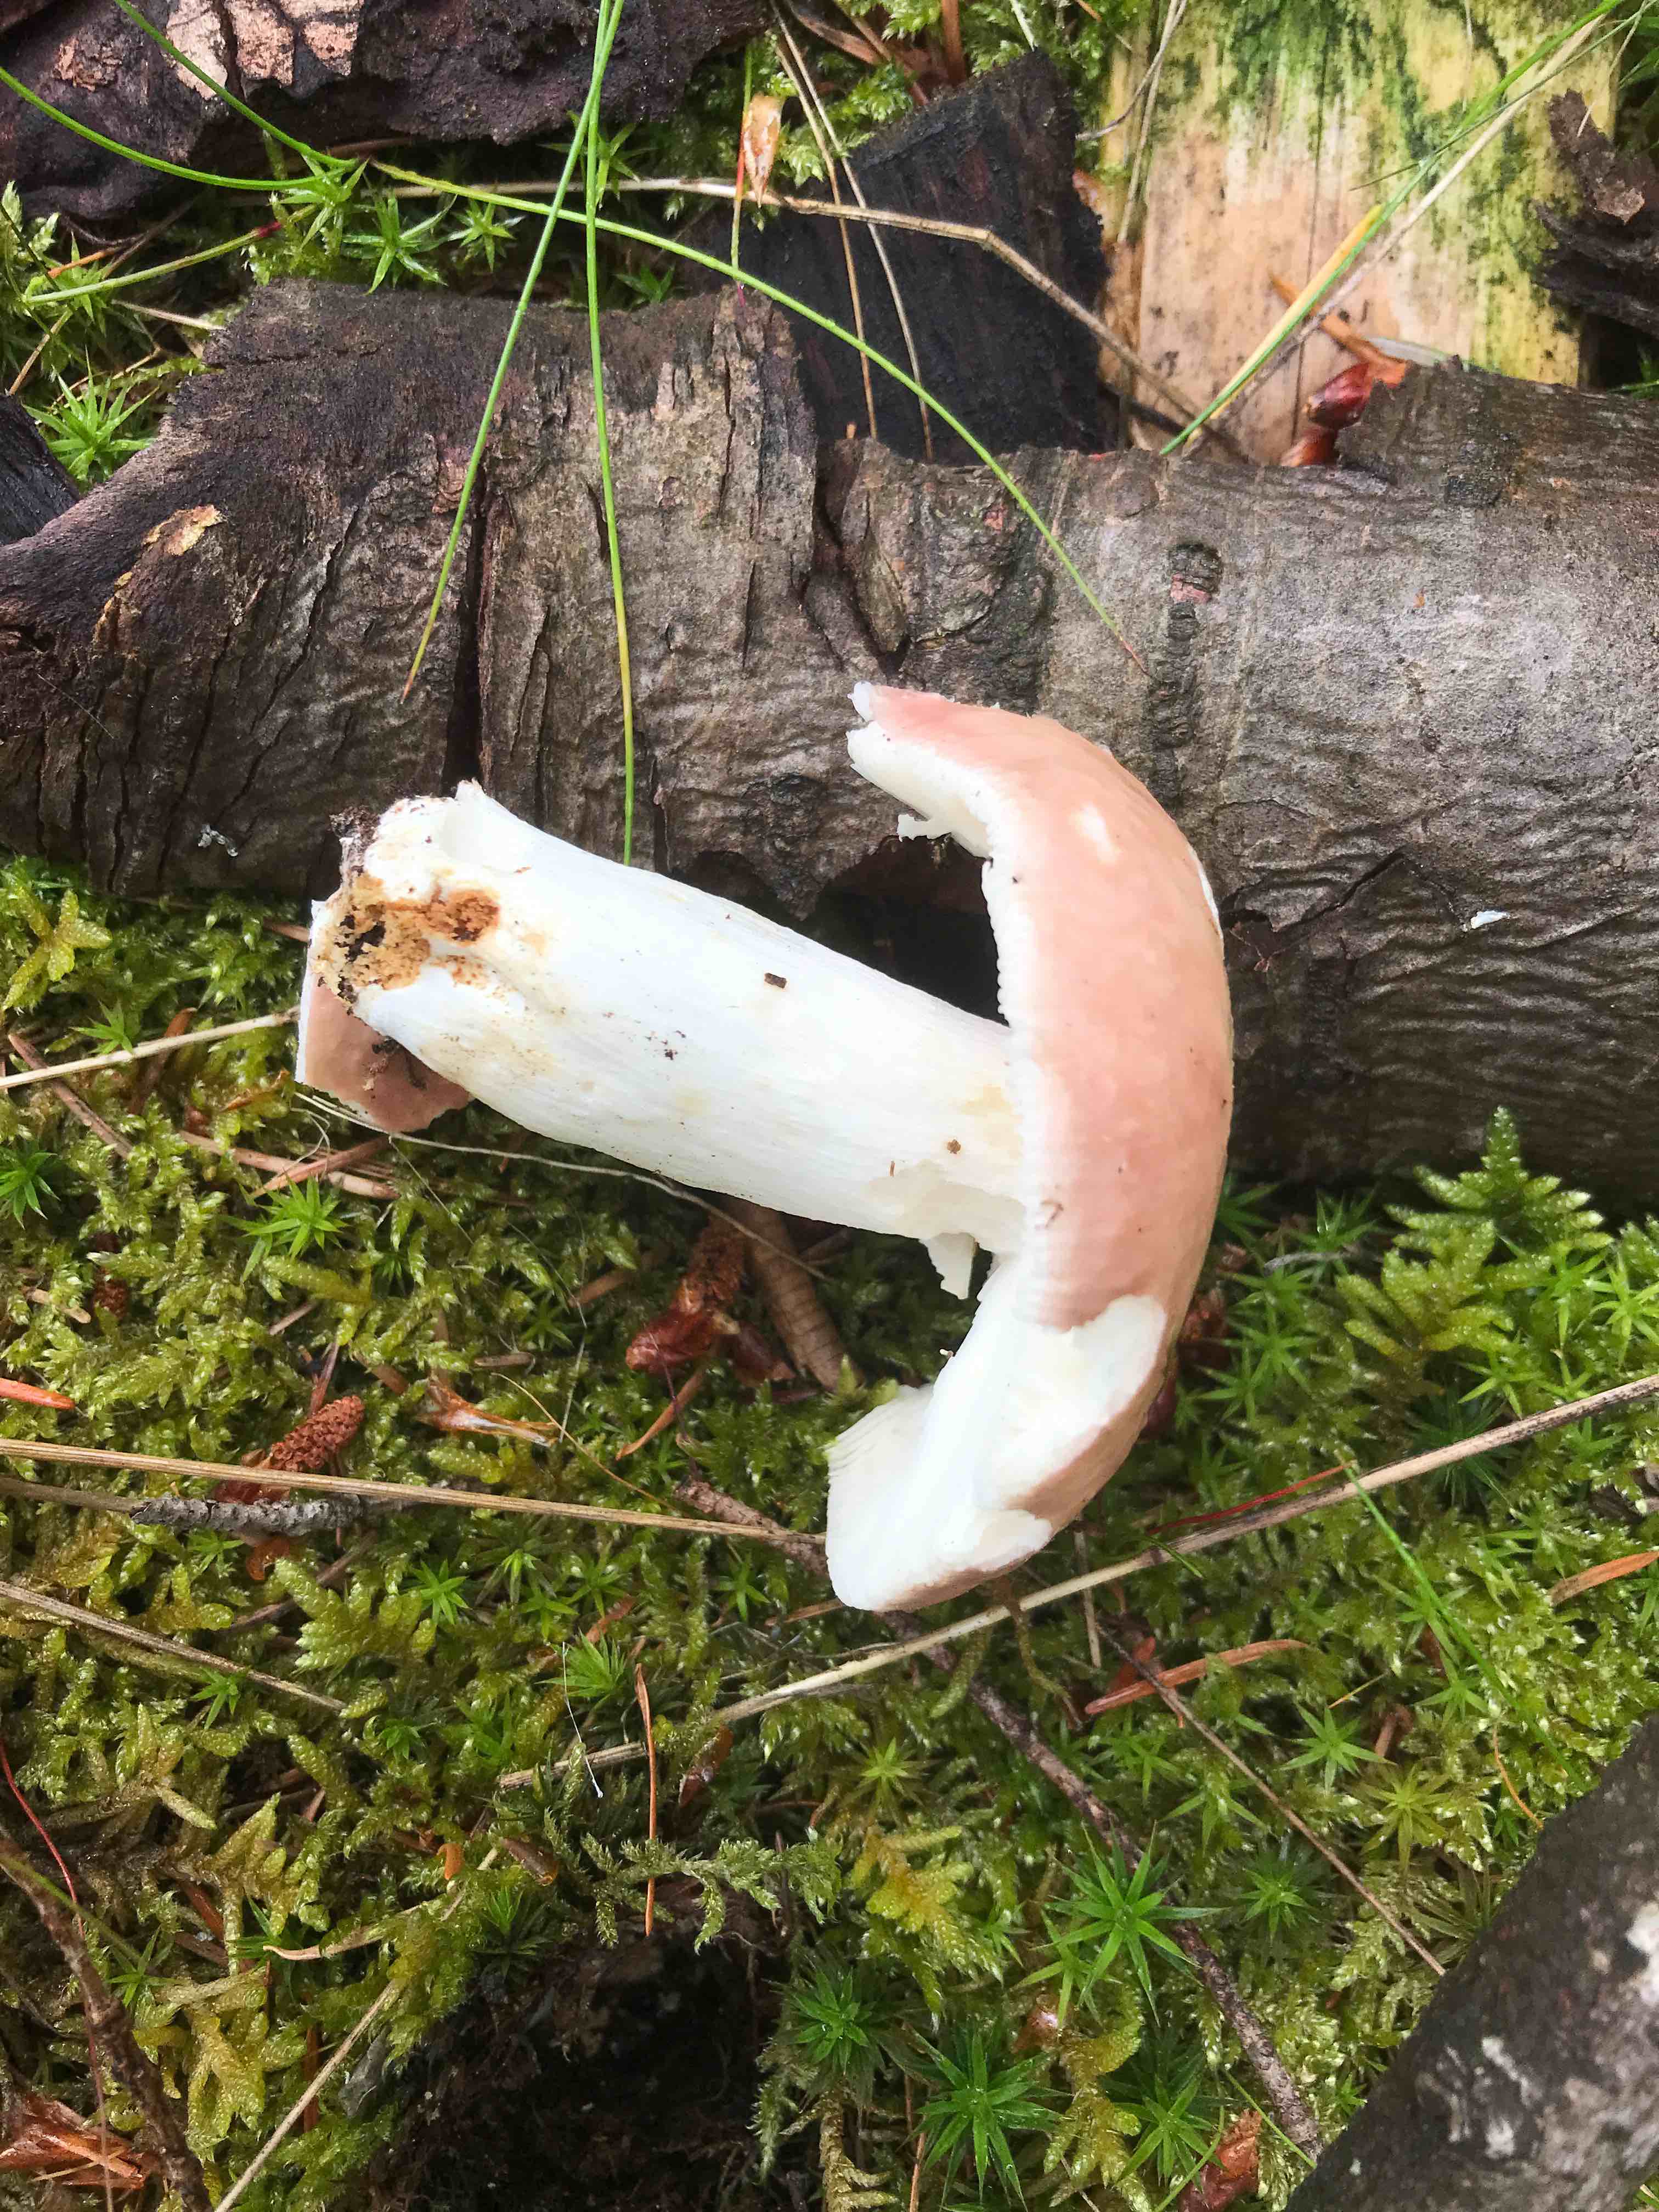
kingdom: Fungi
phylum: Basidiomycota
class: Agaricomycetes
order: Russulales
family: Russulaceae
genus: Russula
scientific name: Russula vesca
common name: spiselig skørhat
